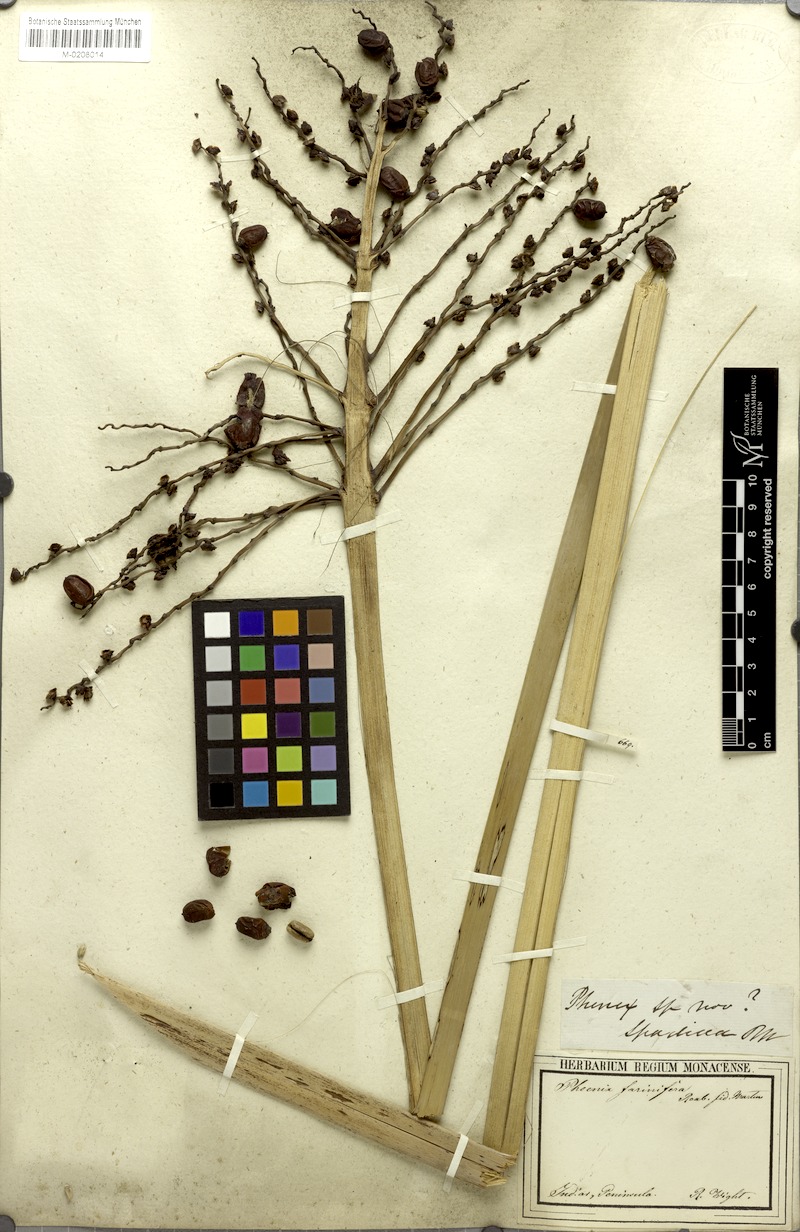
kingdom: Plantae
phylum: Tracheophyta
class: Liliopsida
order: Arecales
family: Arecaceae
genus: Phoenix
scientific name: Phoenix pusilla
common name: Flour palm
